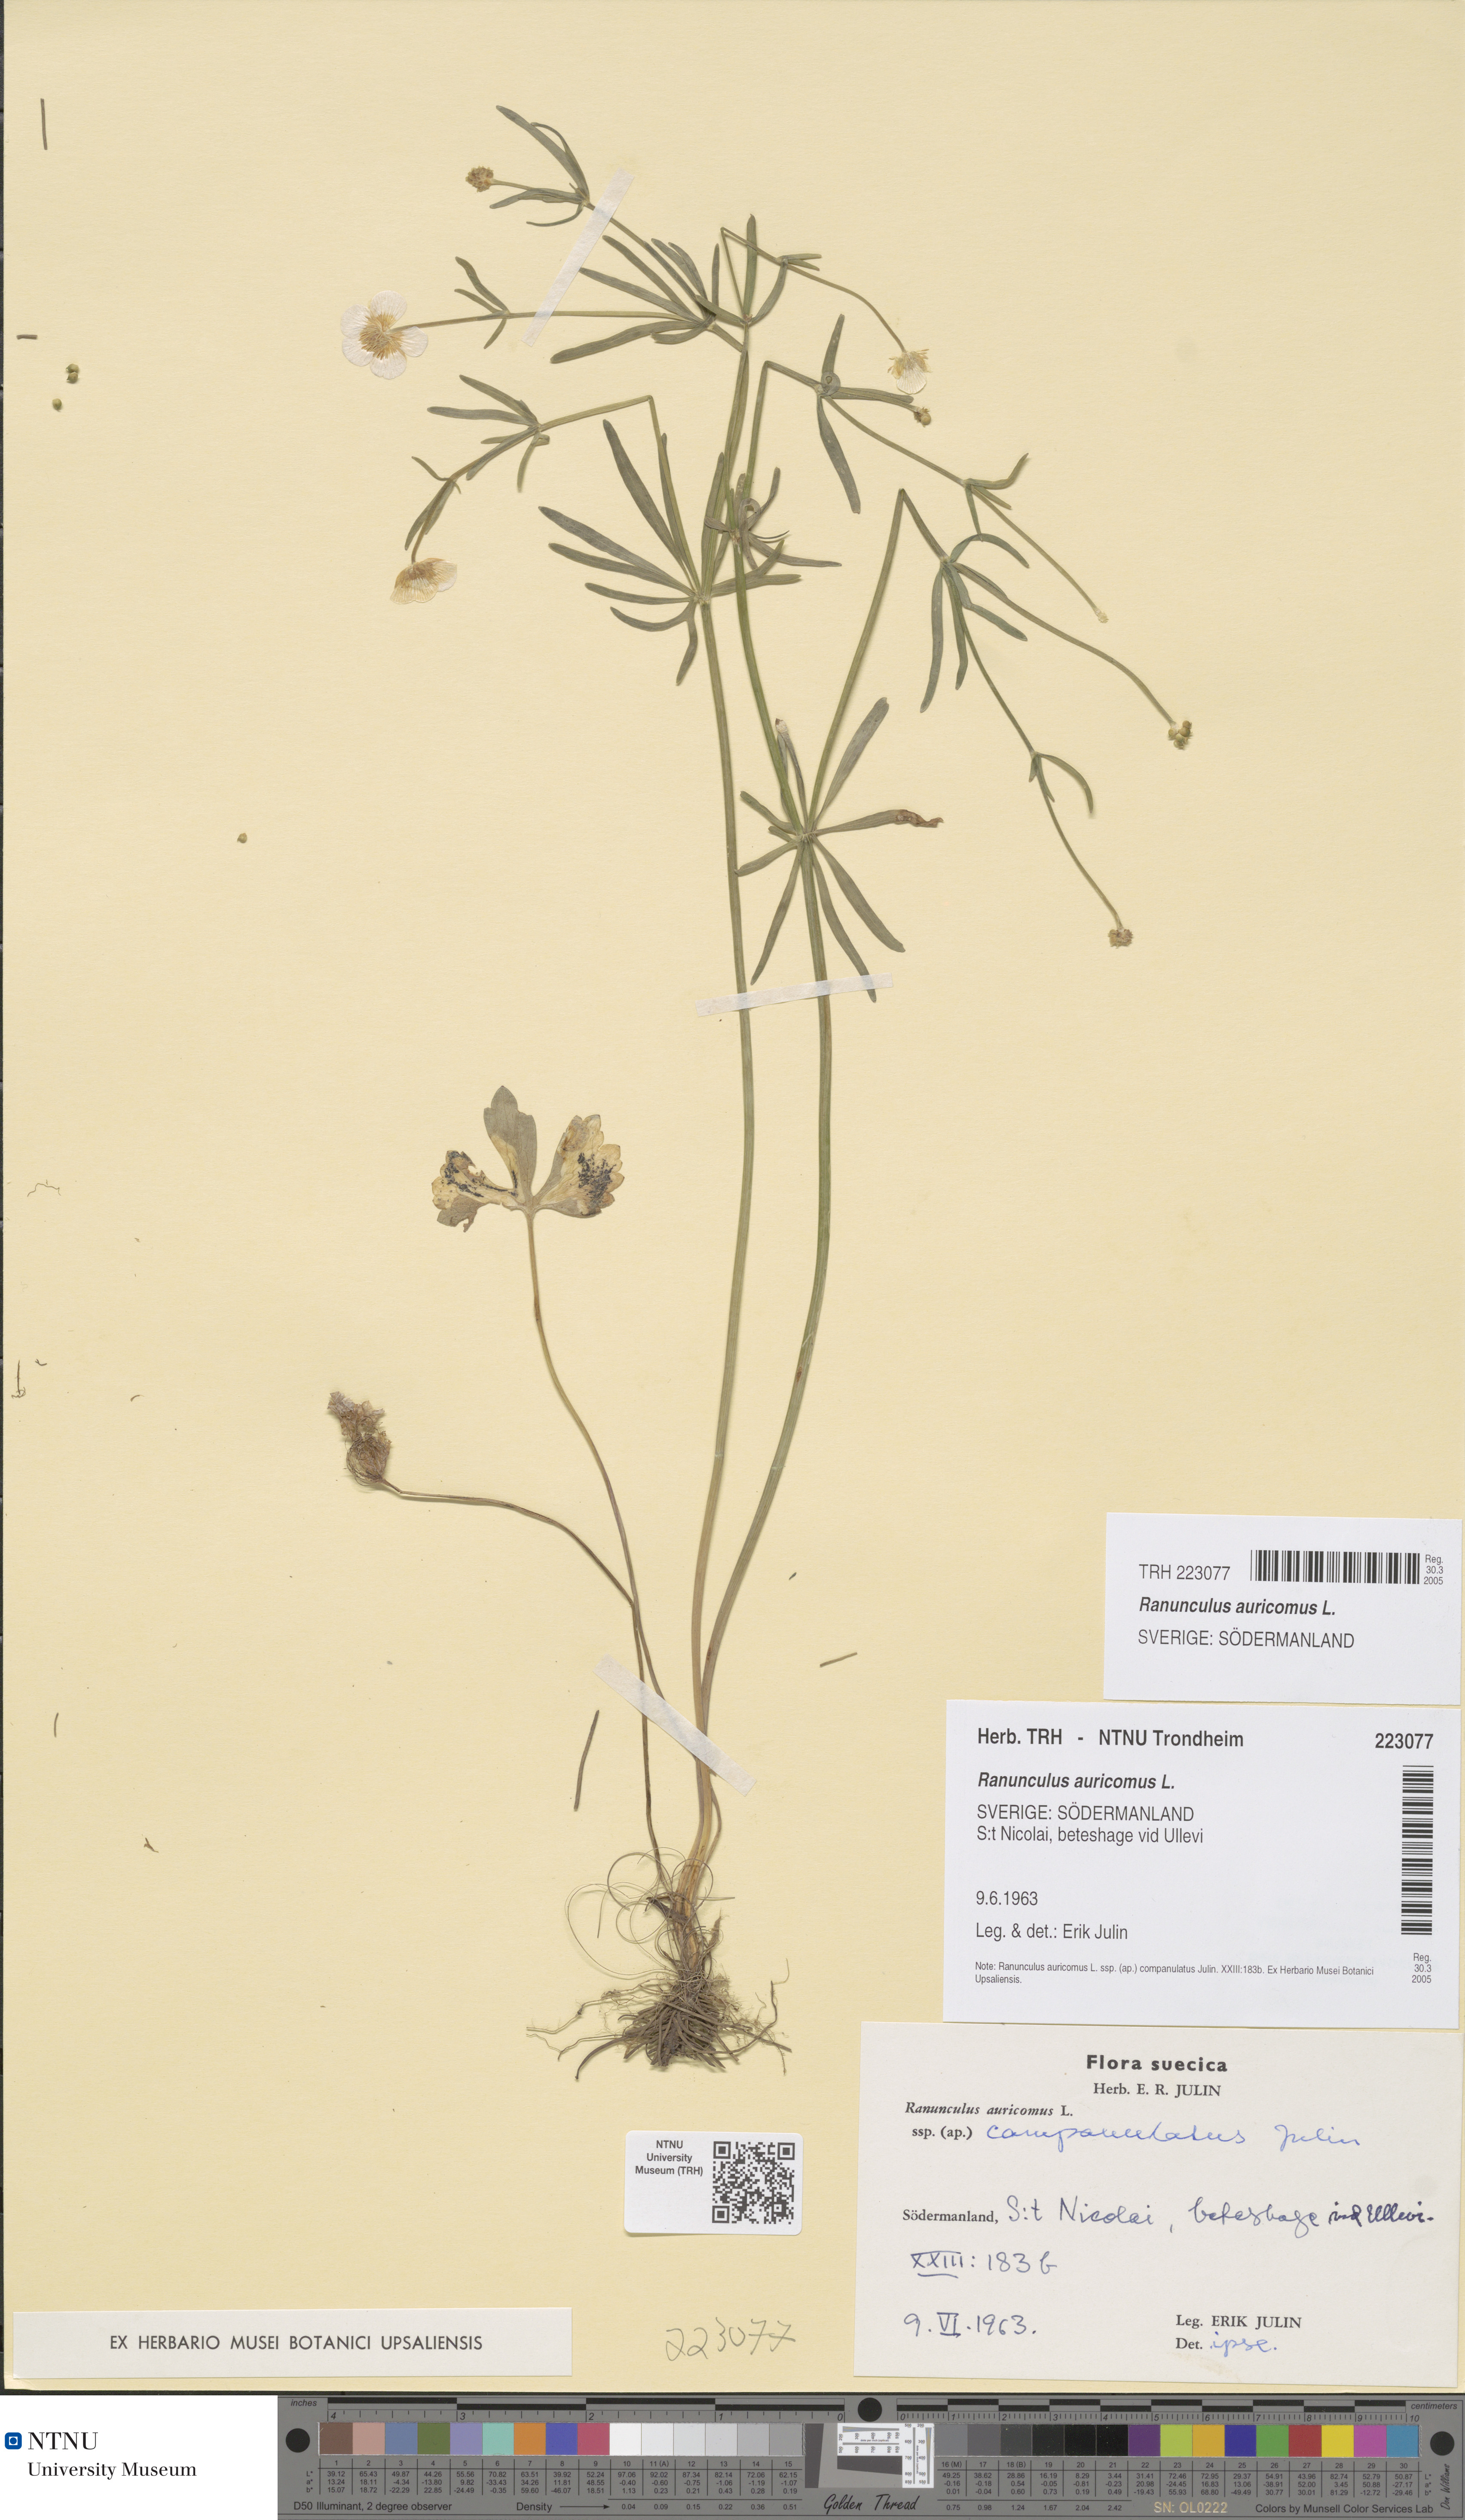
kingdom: Plantae
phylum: Tracheophyta
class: Magnoliopsida
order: Ranunculales
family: Ranunculaceae
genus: Ranunculus
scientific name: Ranunculus auricomus
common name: Goldilocks buttercup
